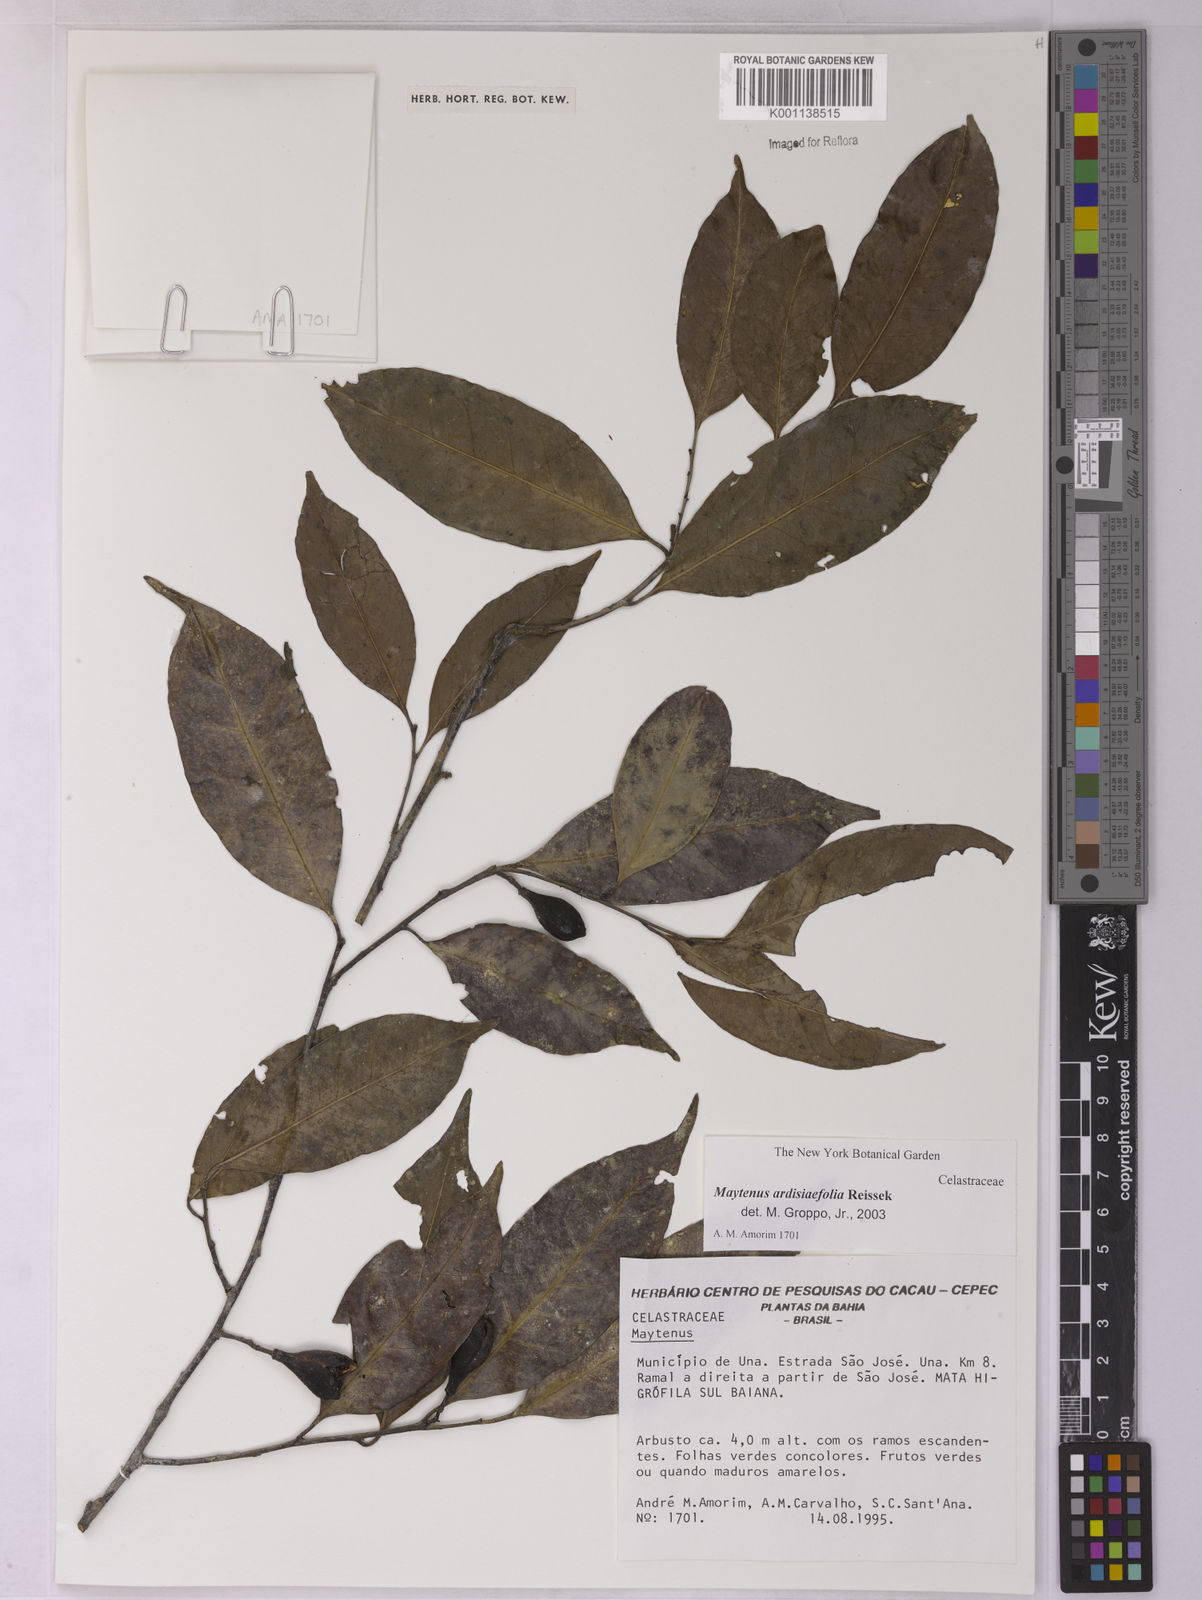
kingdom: Plantae
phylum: Tracheophyta
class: Magnoliopsida
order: Celastrales
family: Celastraceae
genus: Monteverdia
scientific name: Monteverdia ardisiifolia
